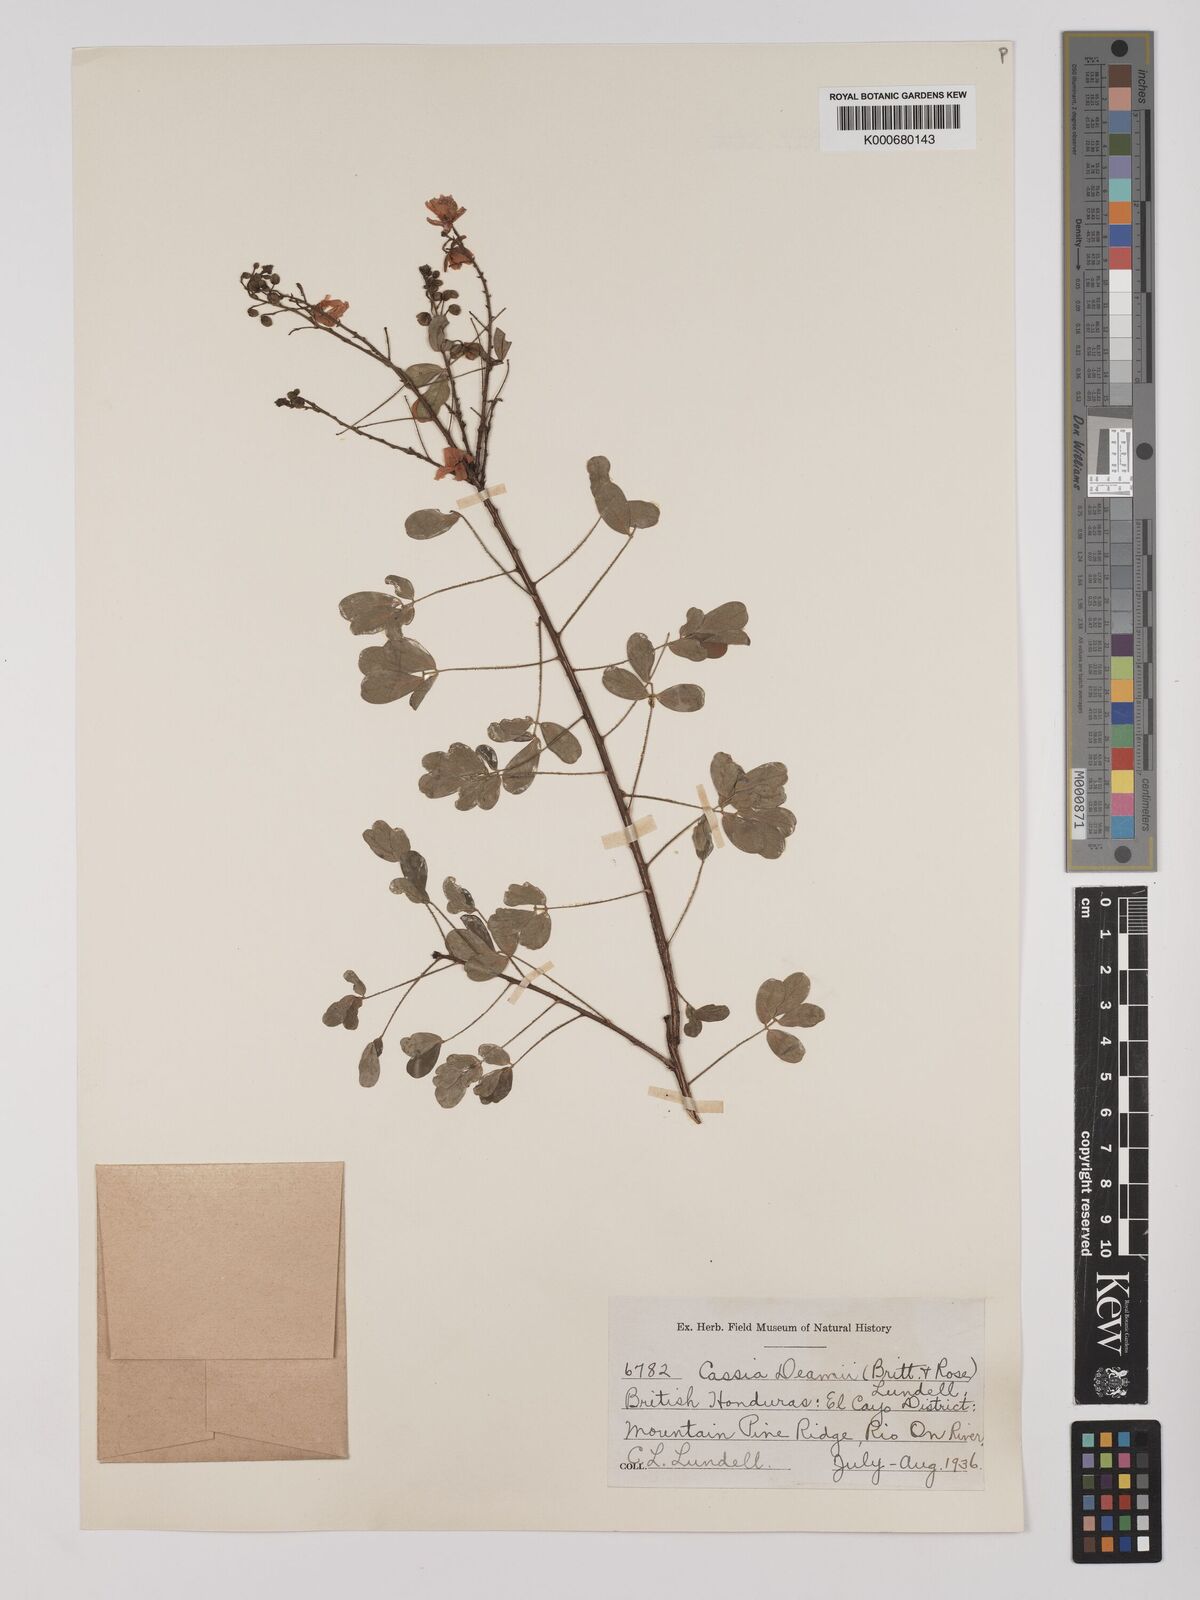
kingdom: Plantae
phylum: Tracheophyta
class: Magnoliopsida
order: Fabales
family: Fabaceae
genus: Chamaecrista
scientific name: Chamaecrista zygophylloides
